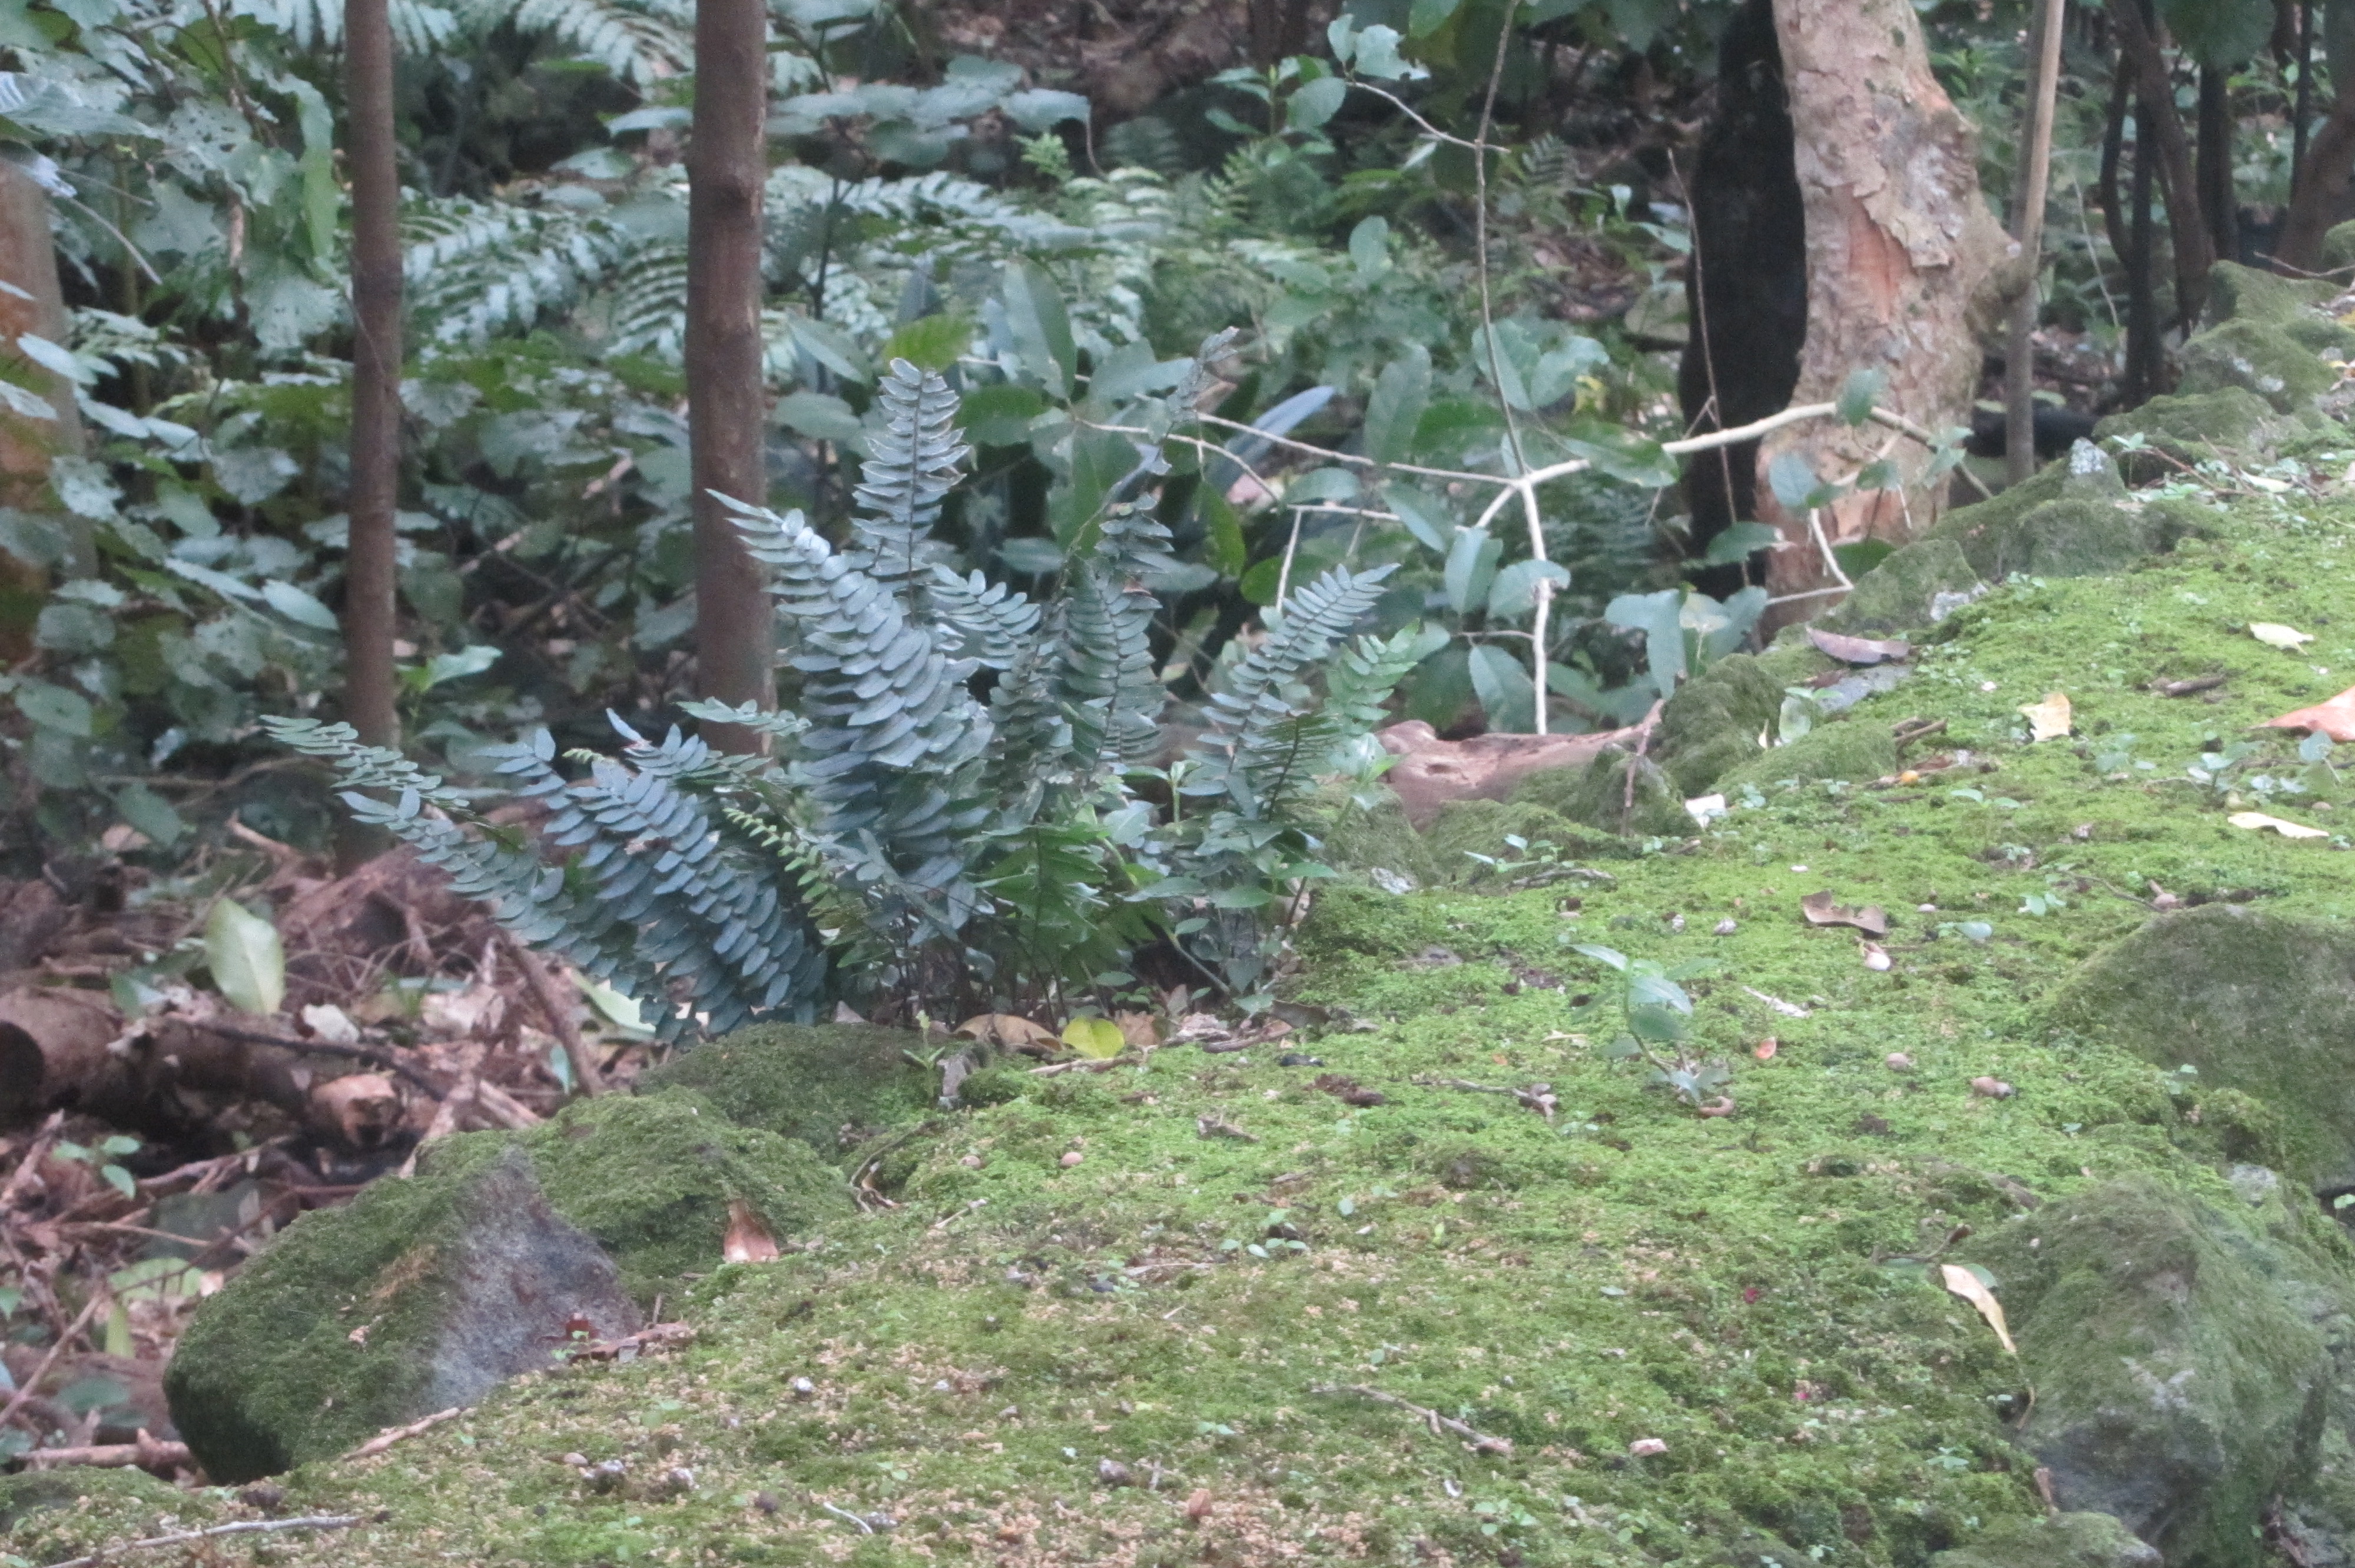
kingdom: Plantae
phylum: Tracheophyta
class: Polypodiopsida
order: Polypodiales
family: Pteridaceae
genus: Pellaea
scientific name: Pellaea rotundifolia
